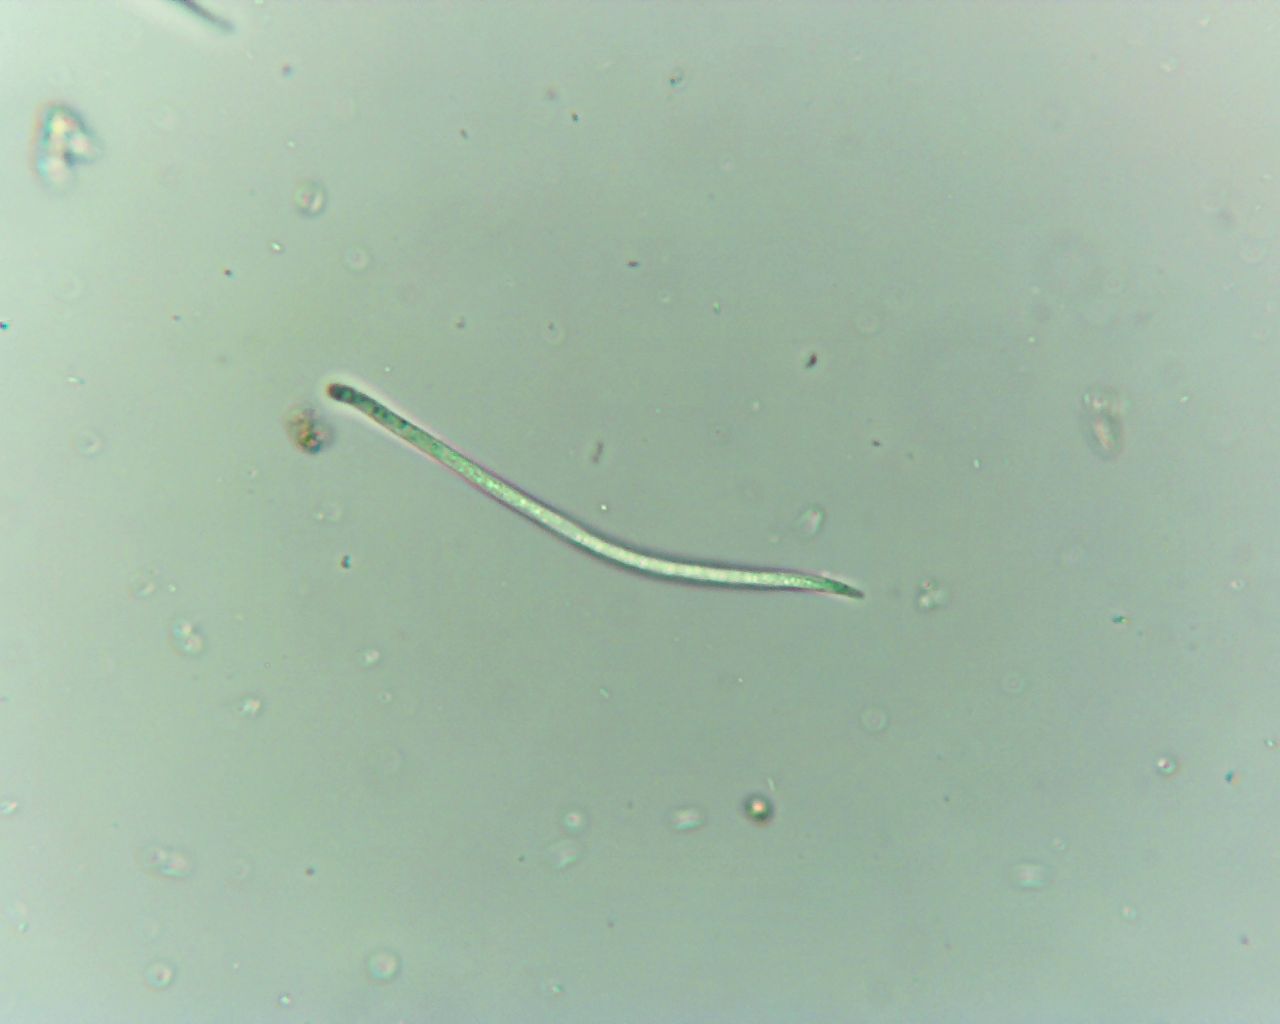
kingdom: Fungi
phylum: Ascomycota
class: Leotiomycetes
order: Rhytismatales
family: Rhytismataceae
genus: Lophodermium
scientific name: Lophodermium pinastri
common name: fyrre-fureplet
